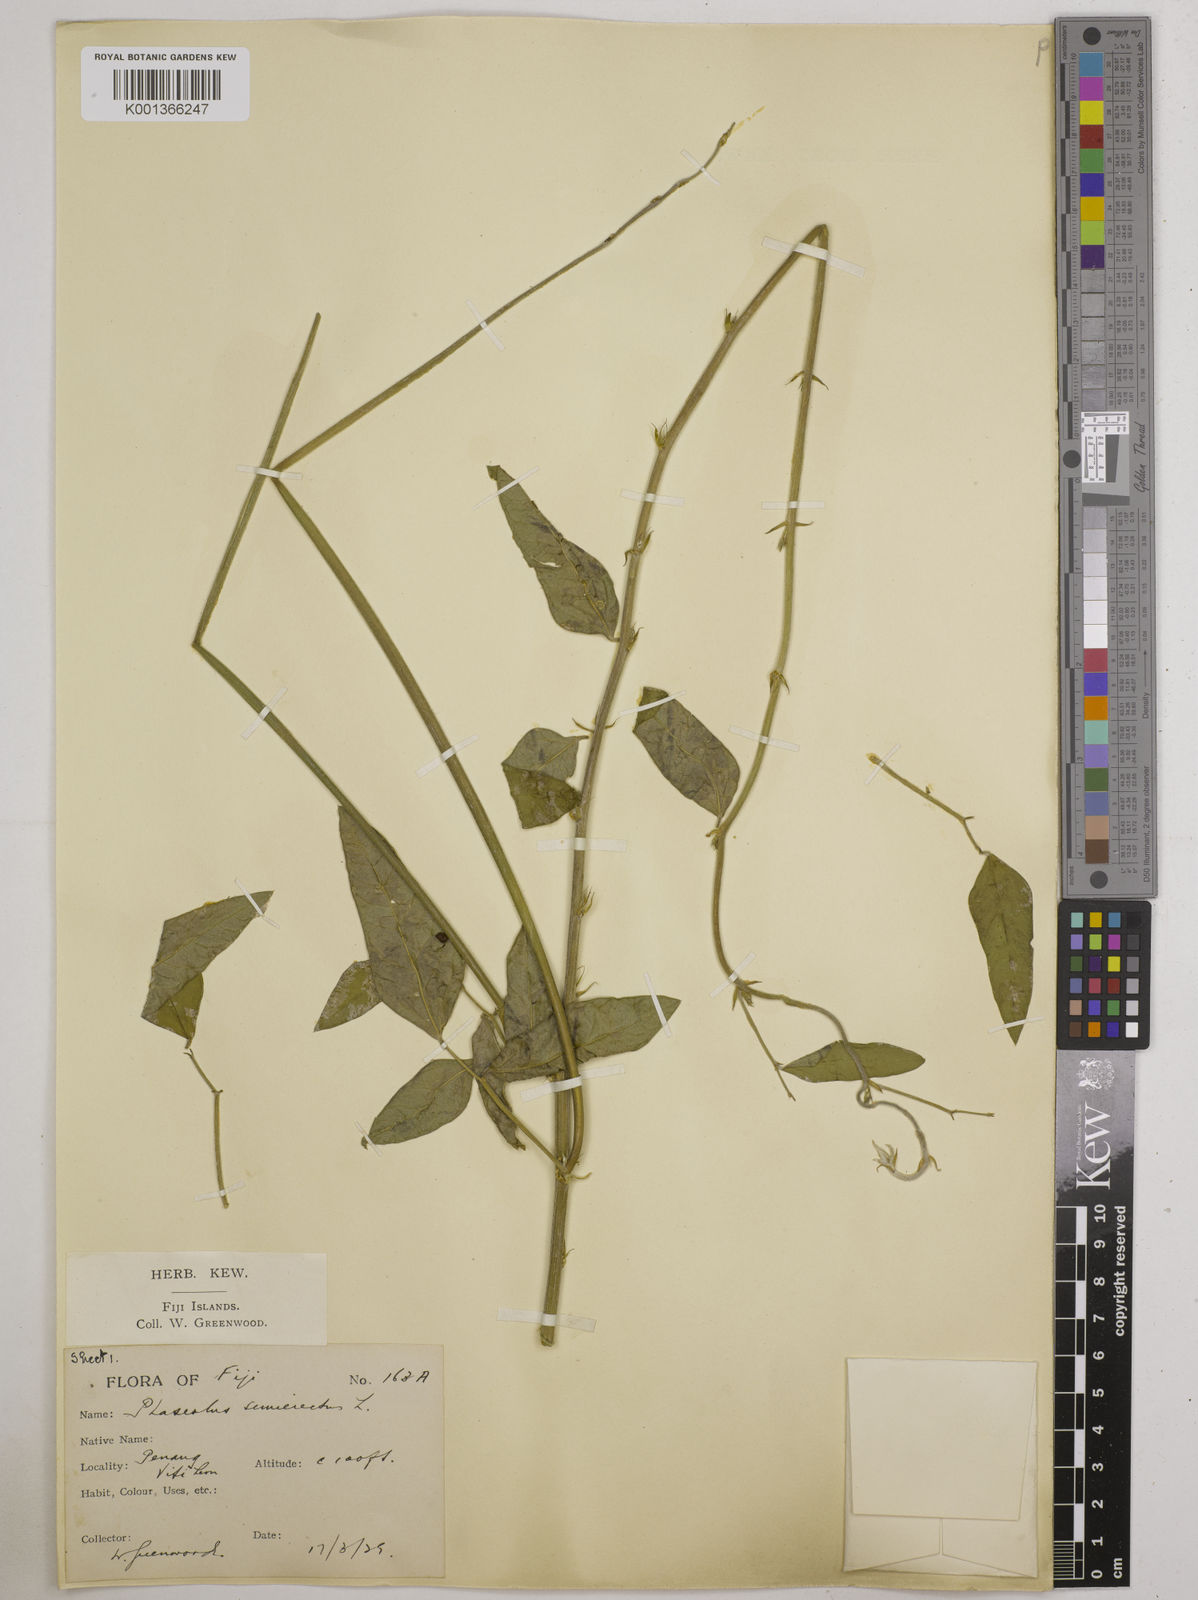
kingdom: Plantae
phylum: Tracheophyta
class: Magnoliopsida
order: Fabales
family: Fabaceae
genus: Macroptilium
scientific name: Macroptilium lathyroides
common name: Wild bushbean
